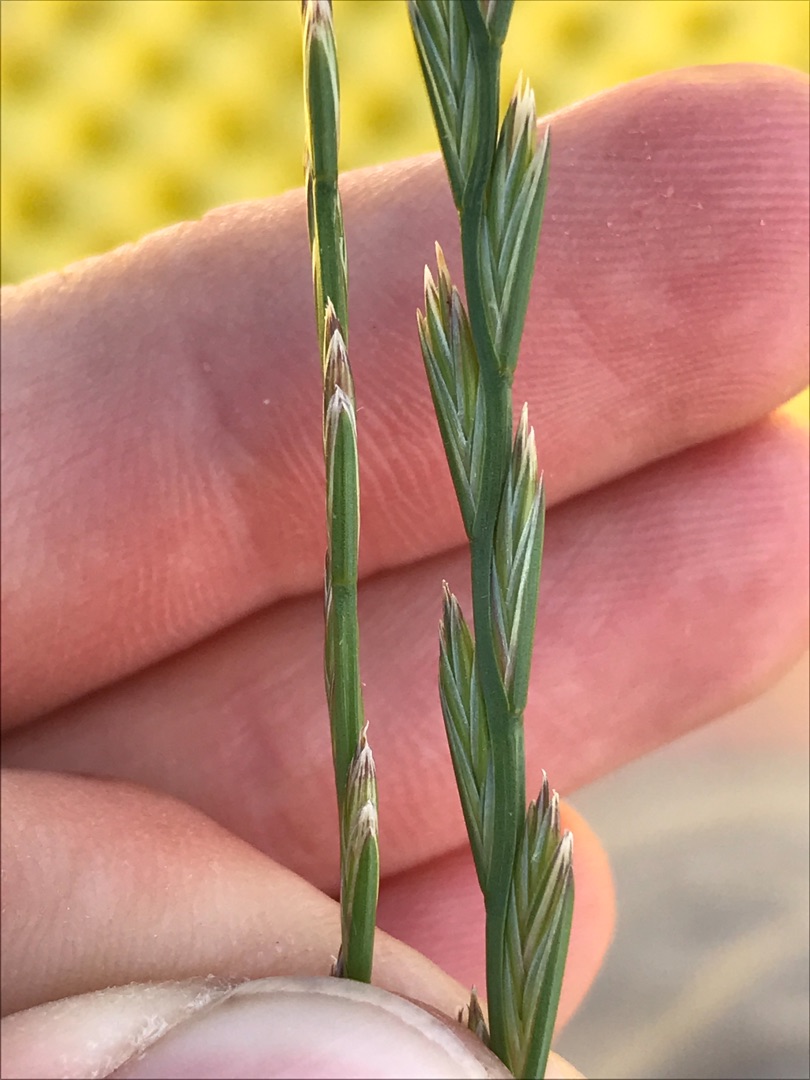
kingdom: Plantae
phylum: Tracheophyta
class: Liliopsida
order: Poales
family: Poaceae
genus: Lolium
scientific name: Lolium perenne
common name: Almindelig rajgræs
